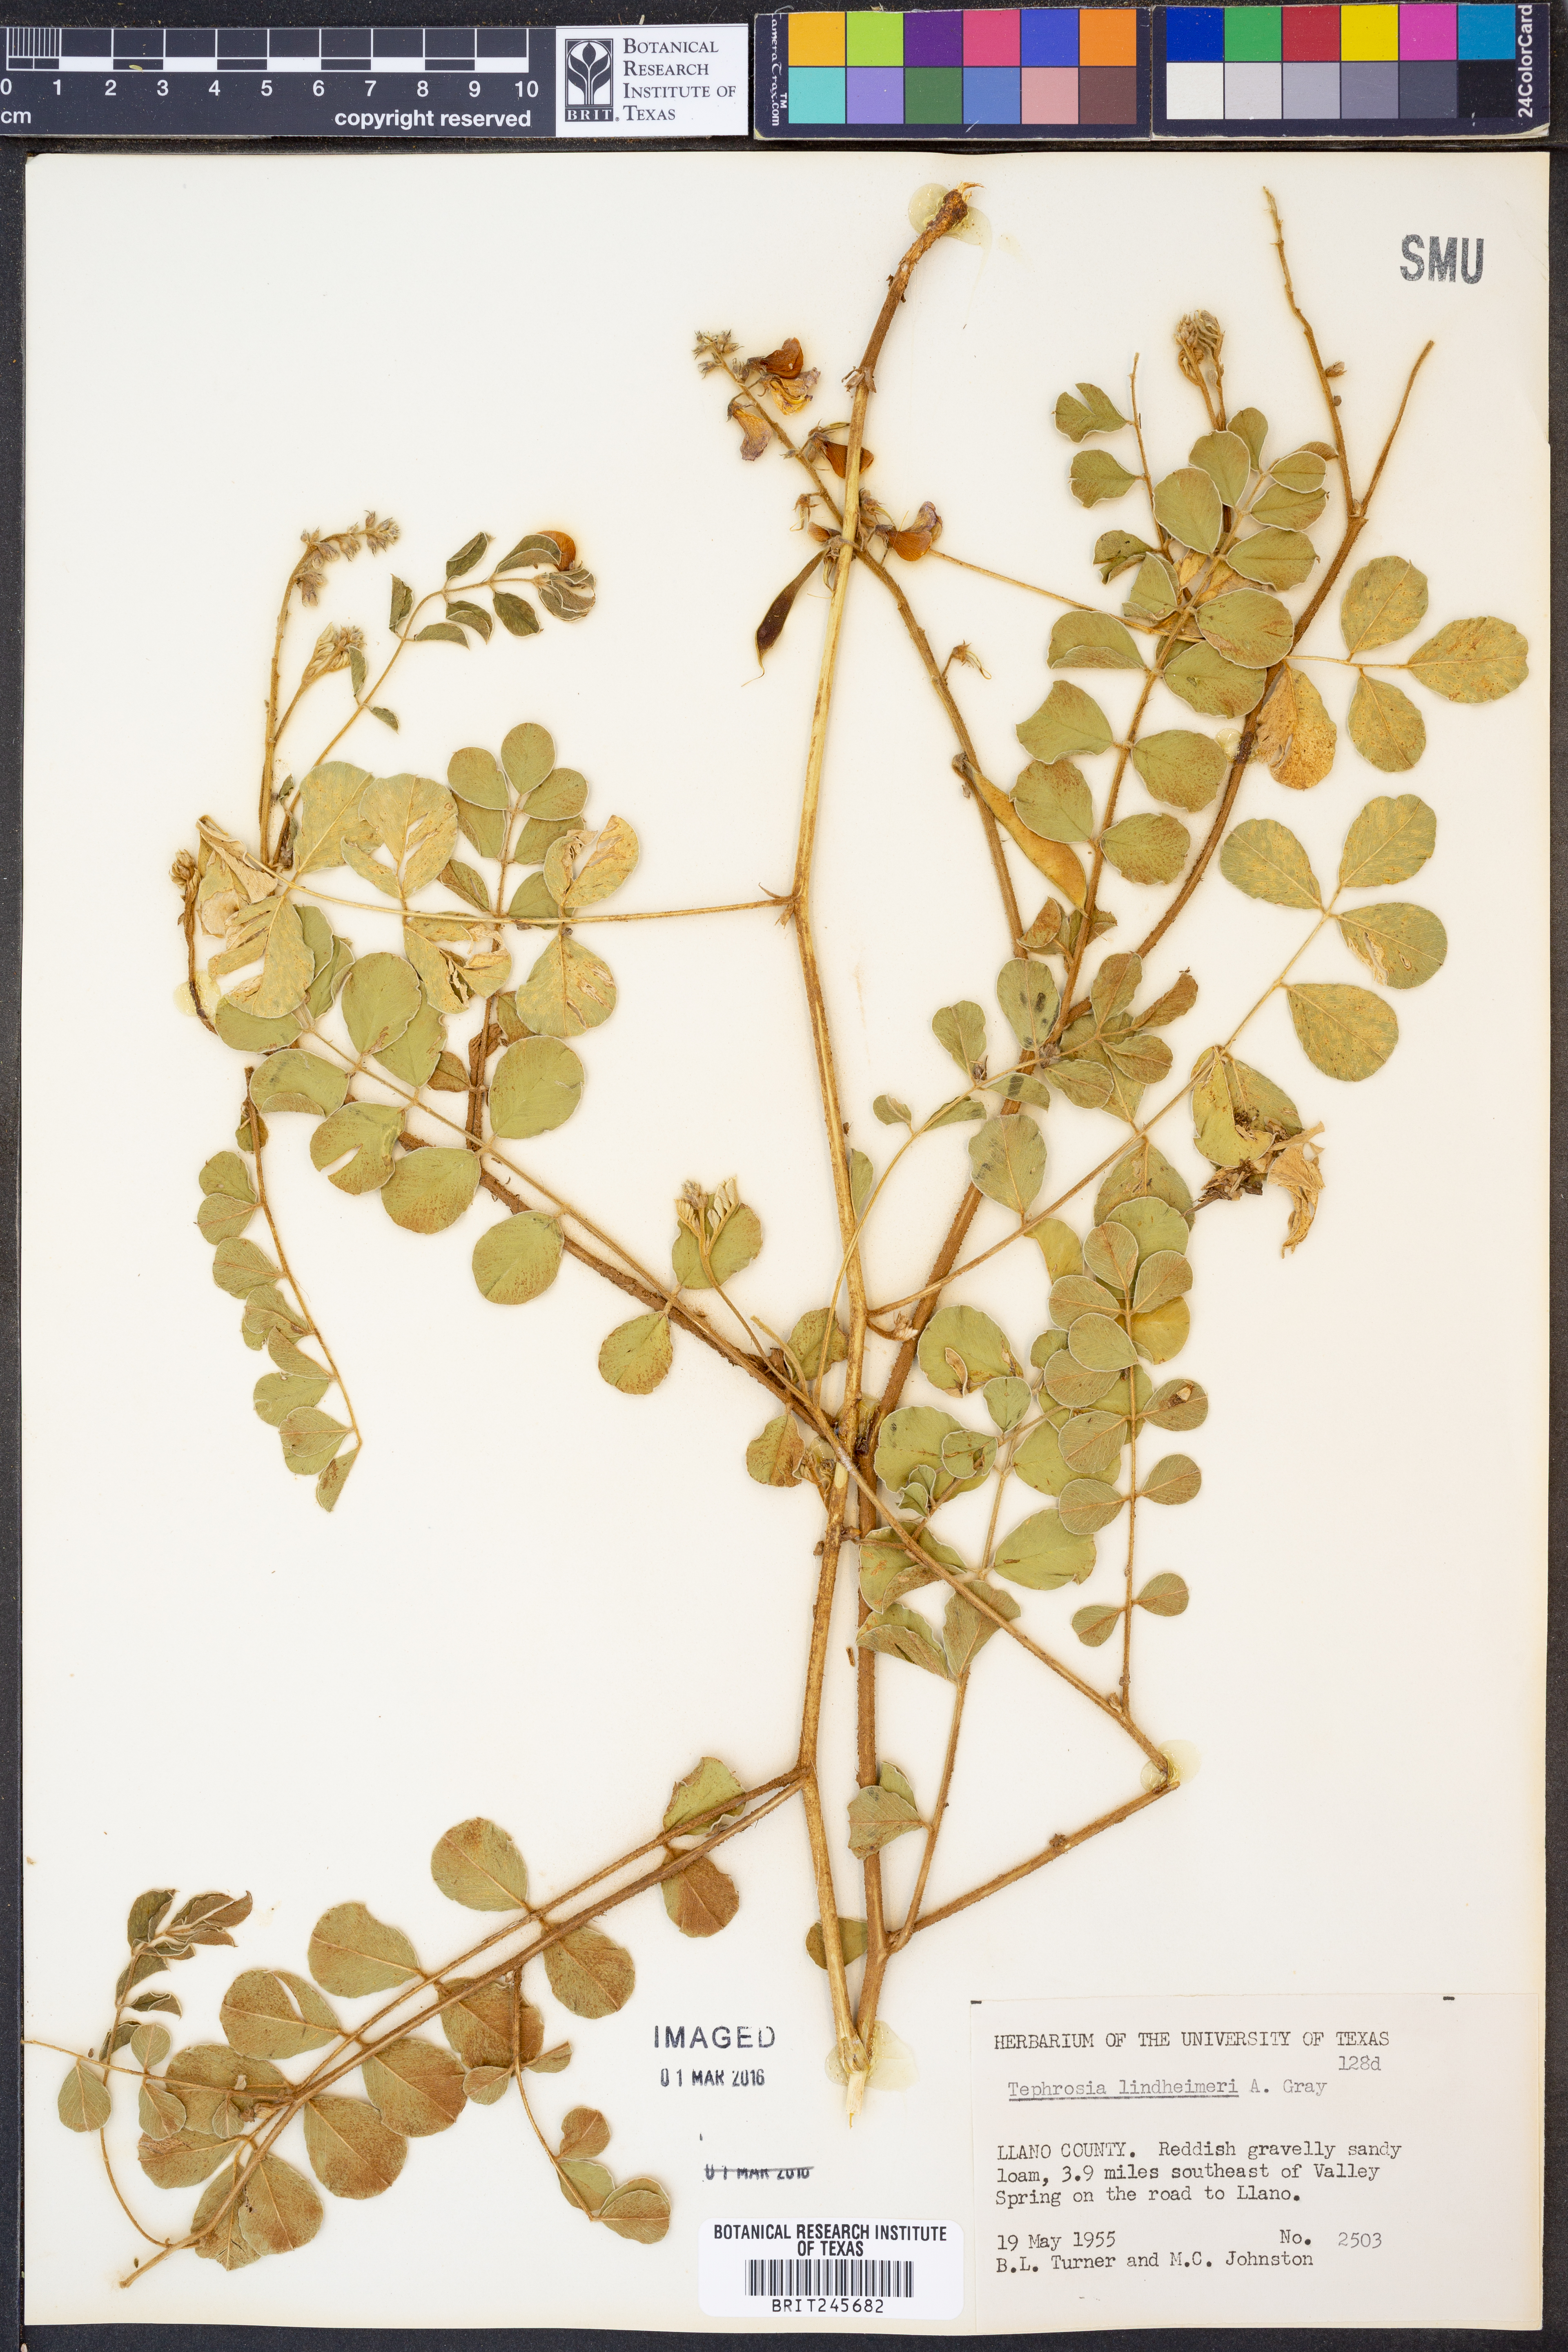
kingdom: Plantae
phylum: Tracheophyta
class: Magnoliopsida
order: Fabales
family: Fabaceae
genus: Tephrosia
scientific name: Tephrosia lindheimeri
